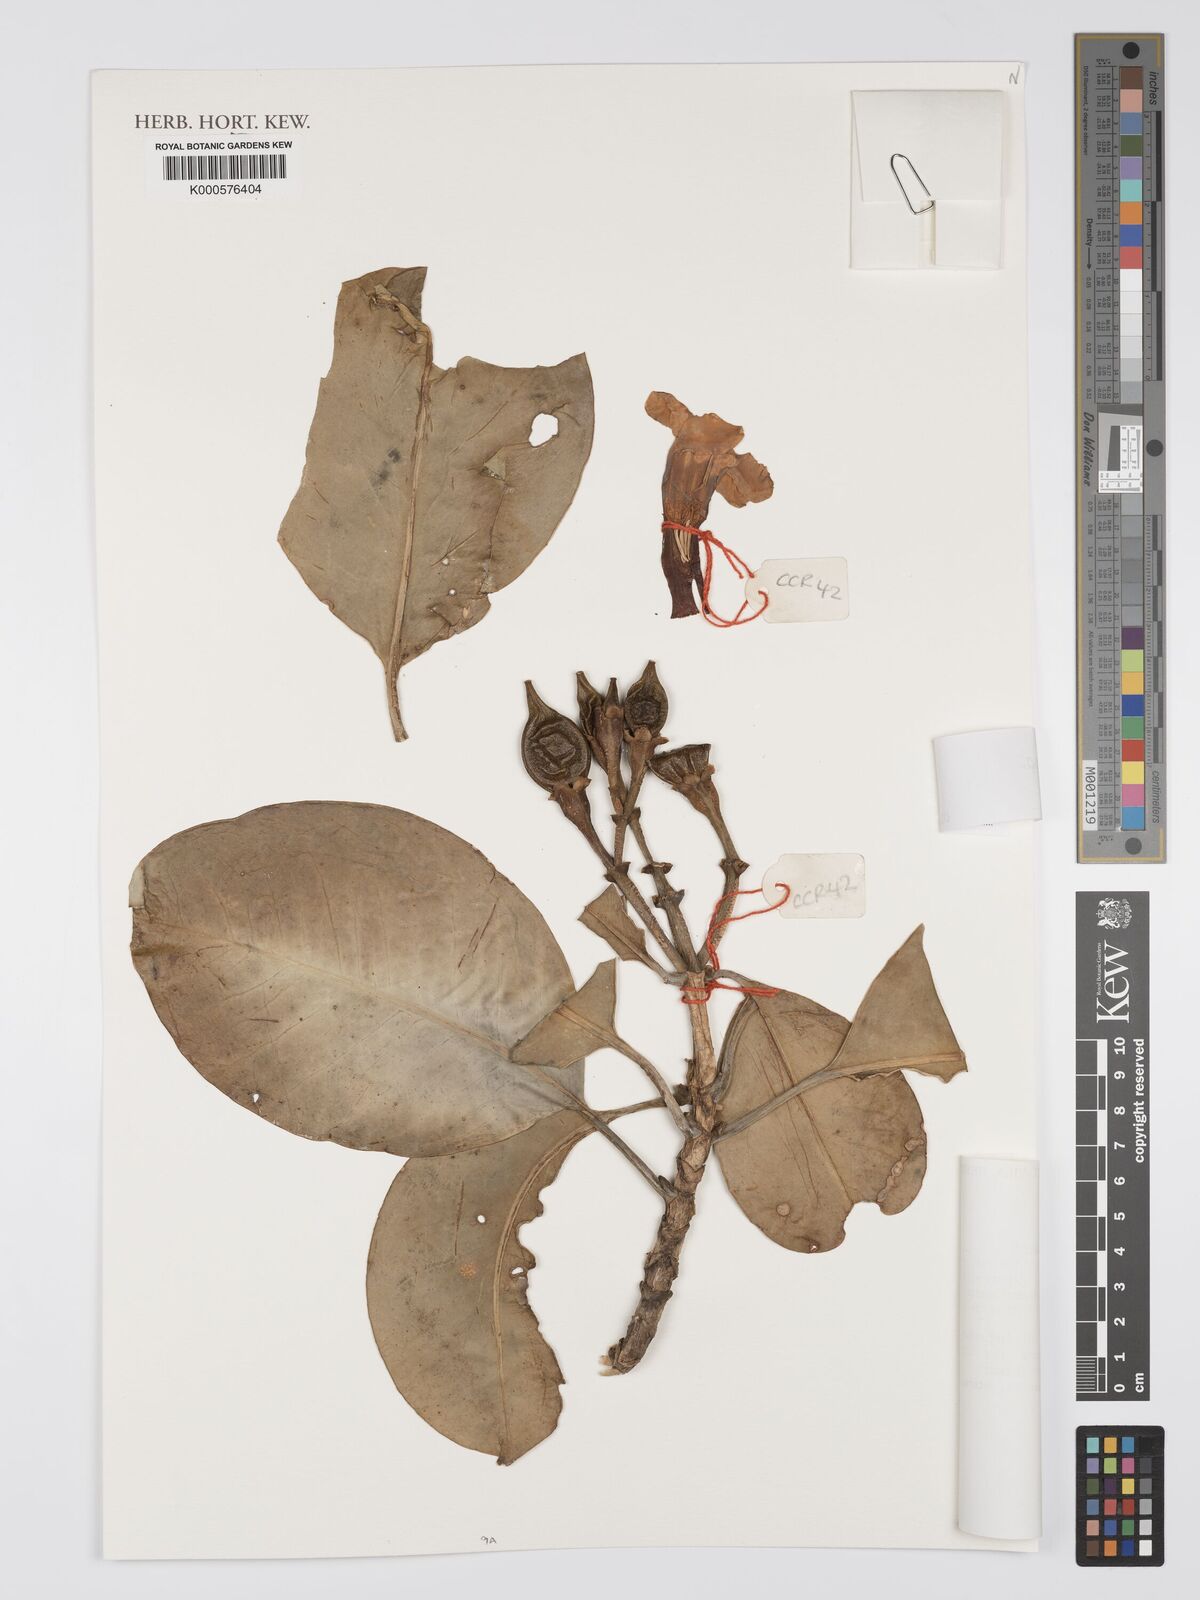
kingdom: Plantae
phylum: Tracheophyta
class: Magnoliopsida
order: Gentianales
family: Gentianaceae
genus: Fagraea
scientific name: Fagraea
